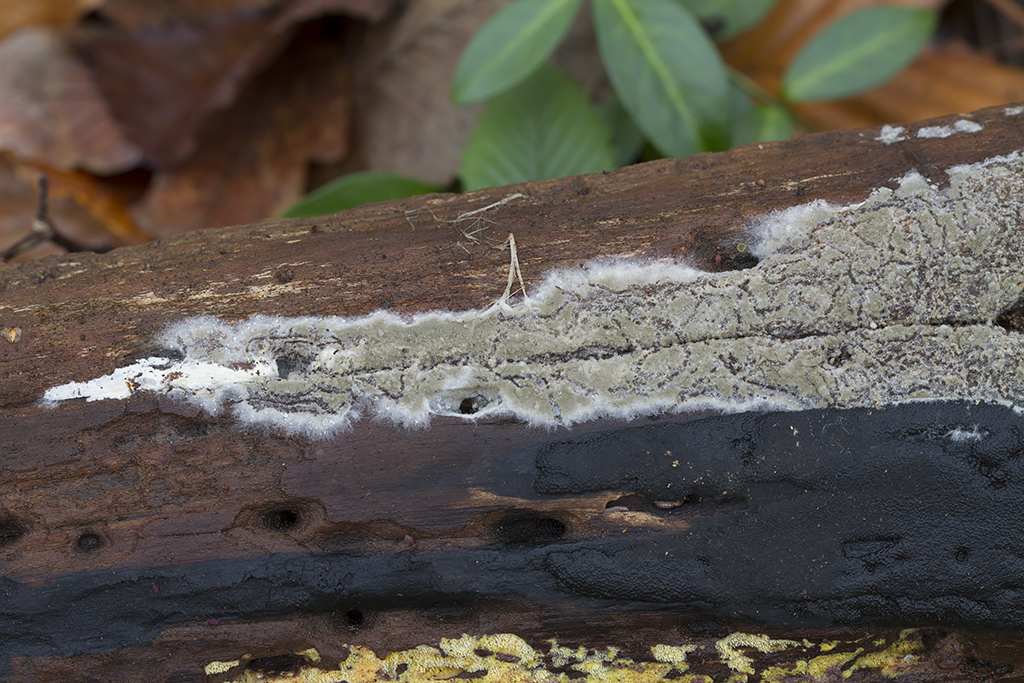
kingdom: Fungi
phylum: Basidiomycota
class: Agaricomycetes
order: Cantharellales
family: Botryobasidiaceae
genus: Botryobasidium
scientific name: Botryobasidium conspersum
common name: olivengrå spindhinde
